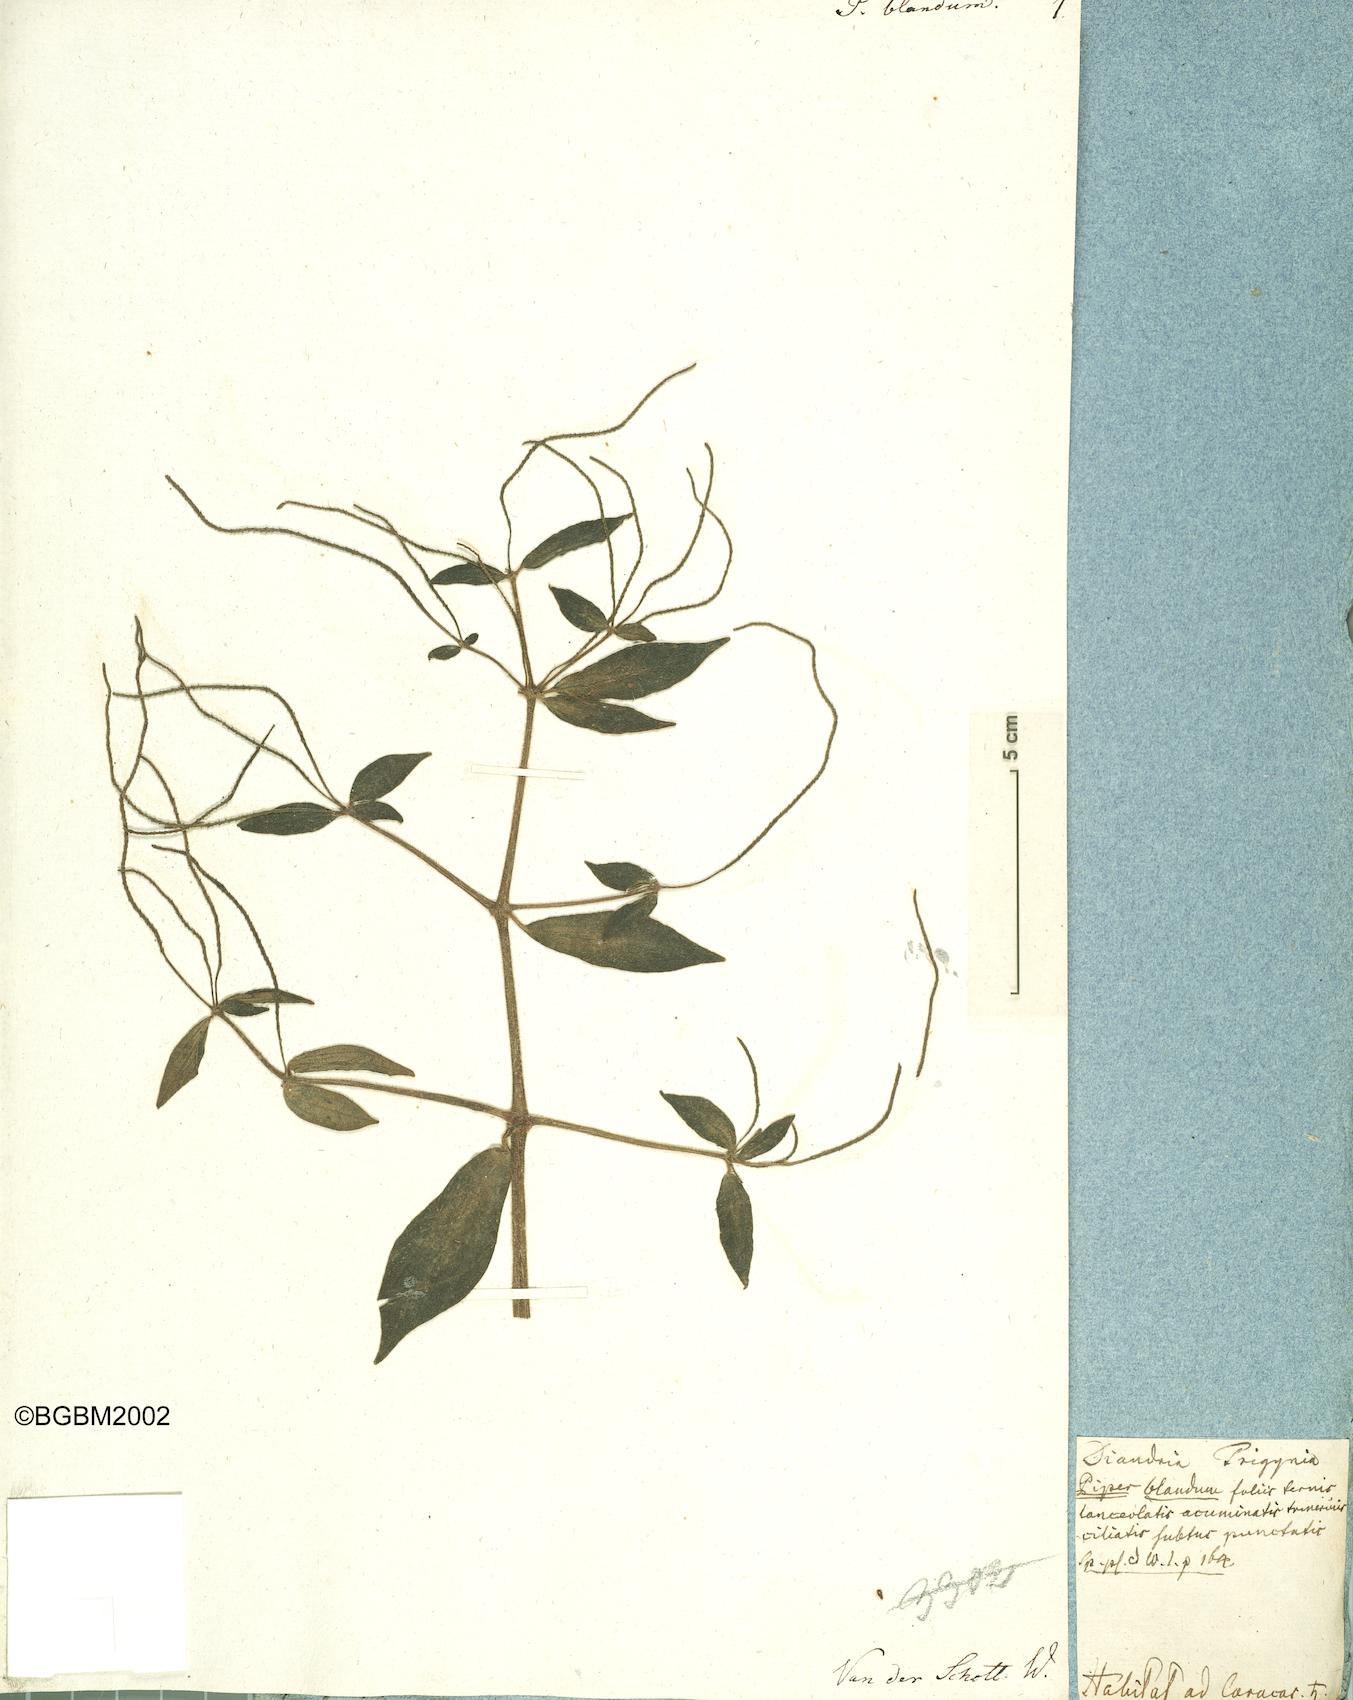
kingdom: Plantae
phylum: Tracheophyta
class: Magnoliopsida
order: Piperales
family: Piperaceae
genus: Peperomia
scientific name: Peperomia blanda
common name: Arid-land peperomia
